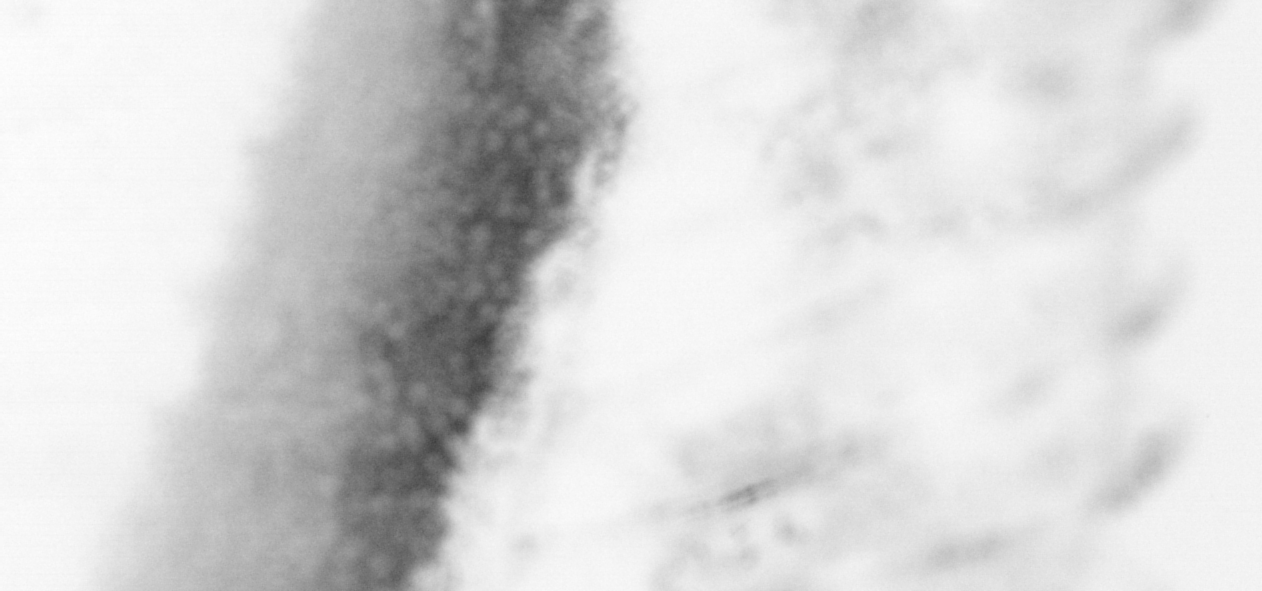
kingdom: Animalia
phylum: Chordata
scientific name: Chordata
